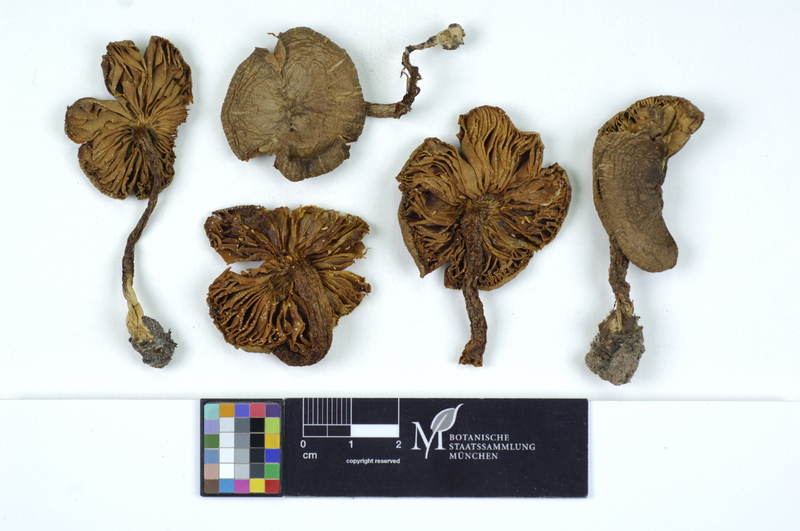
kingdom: Fungi
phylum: Basidiomycota
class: Agaricomycetes
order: Agaricales
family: Tricholomataceae
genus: Tricholoma
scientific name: Tricholoma terreum
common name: Grey knight
